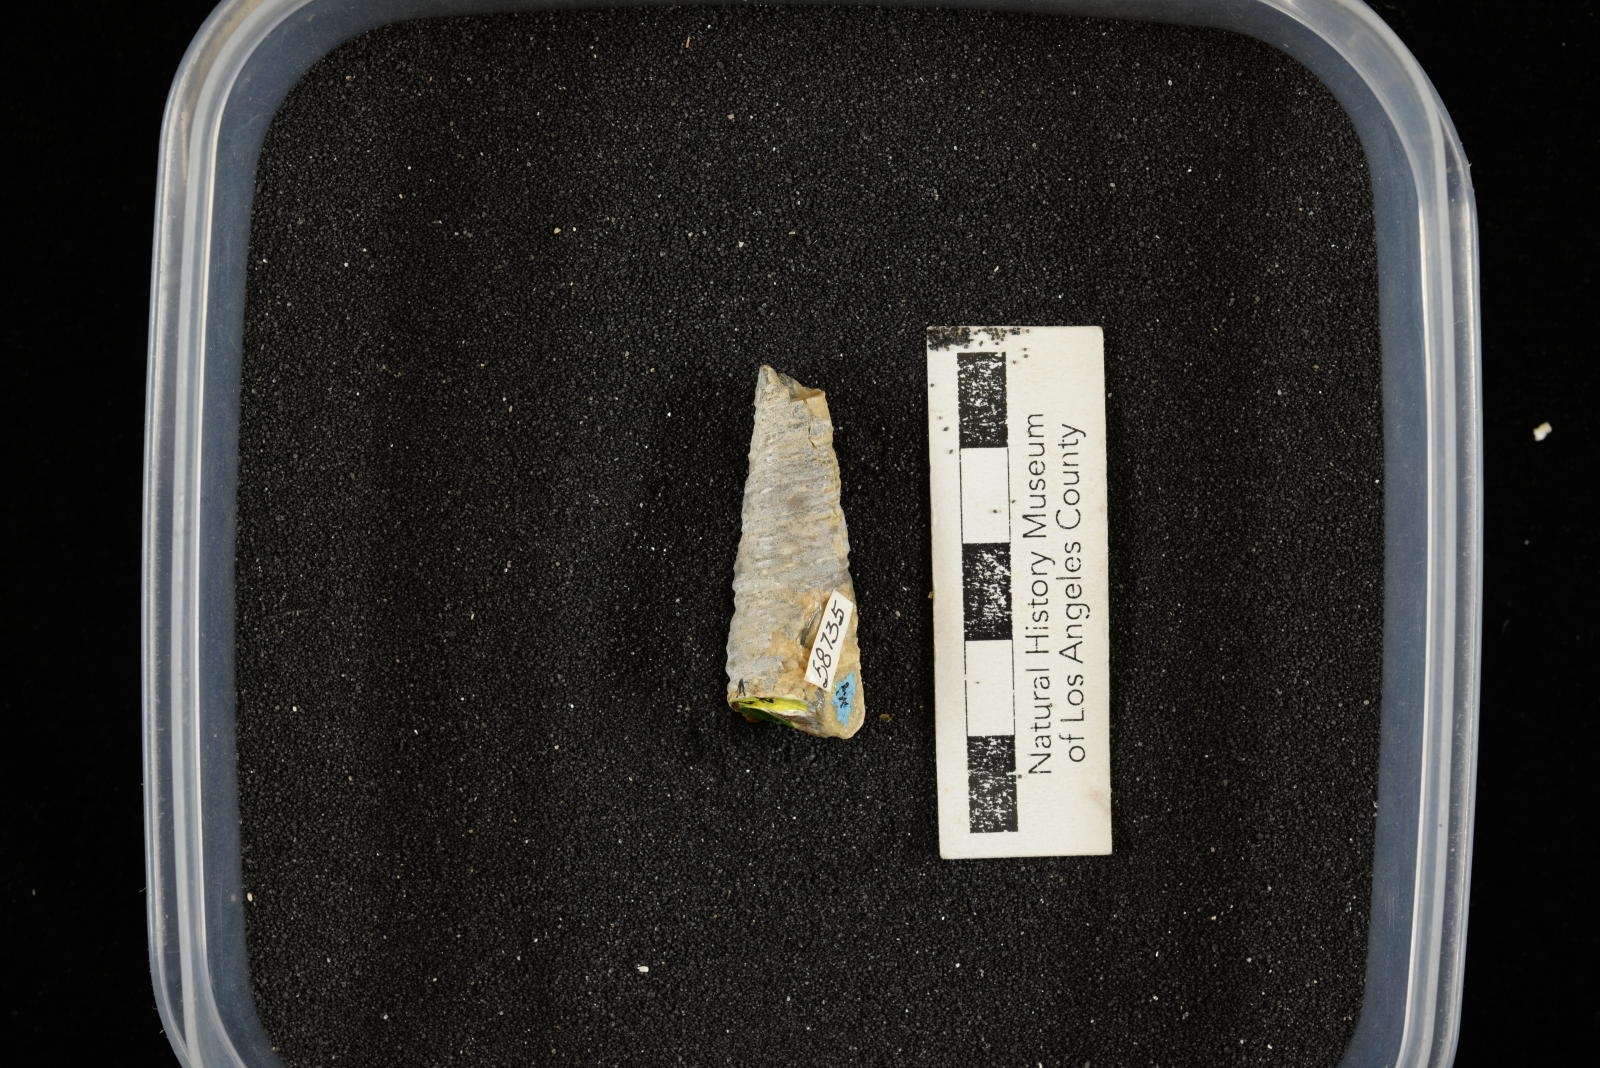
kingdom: Animalia
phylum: Mollusca
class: Gastropoda
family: Turritellidae
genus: Turritella
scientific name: Turritella chicoensis
